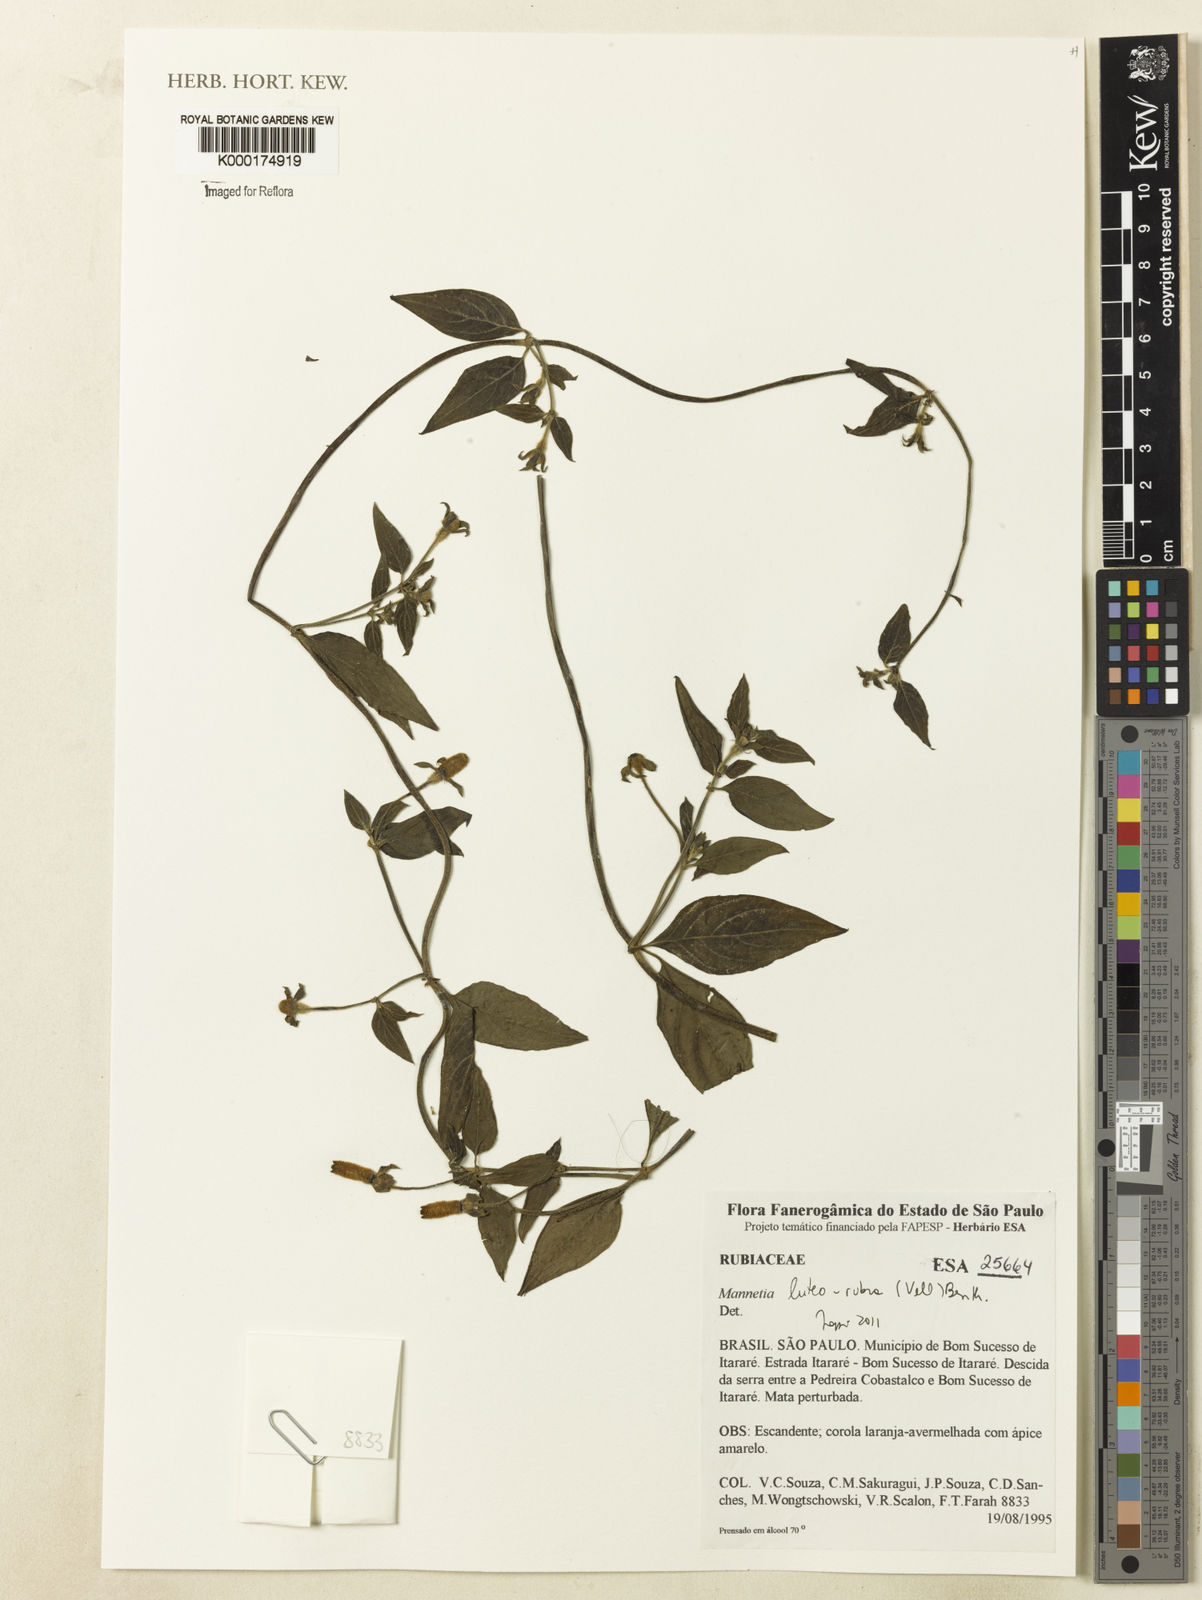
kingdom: Plantae
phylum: Tracheophyta
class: Magnoliopsida
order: Gentianales
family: Rubiaceae
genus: Manettia
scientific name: Manettia luteorubra
